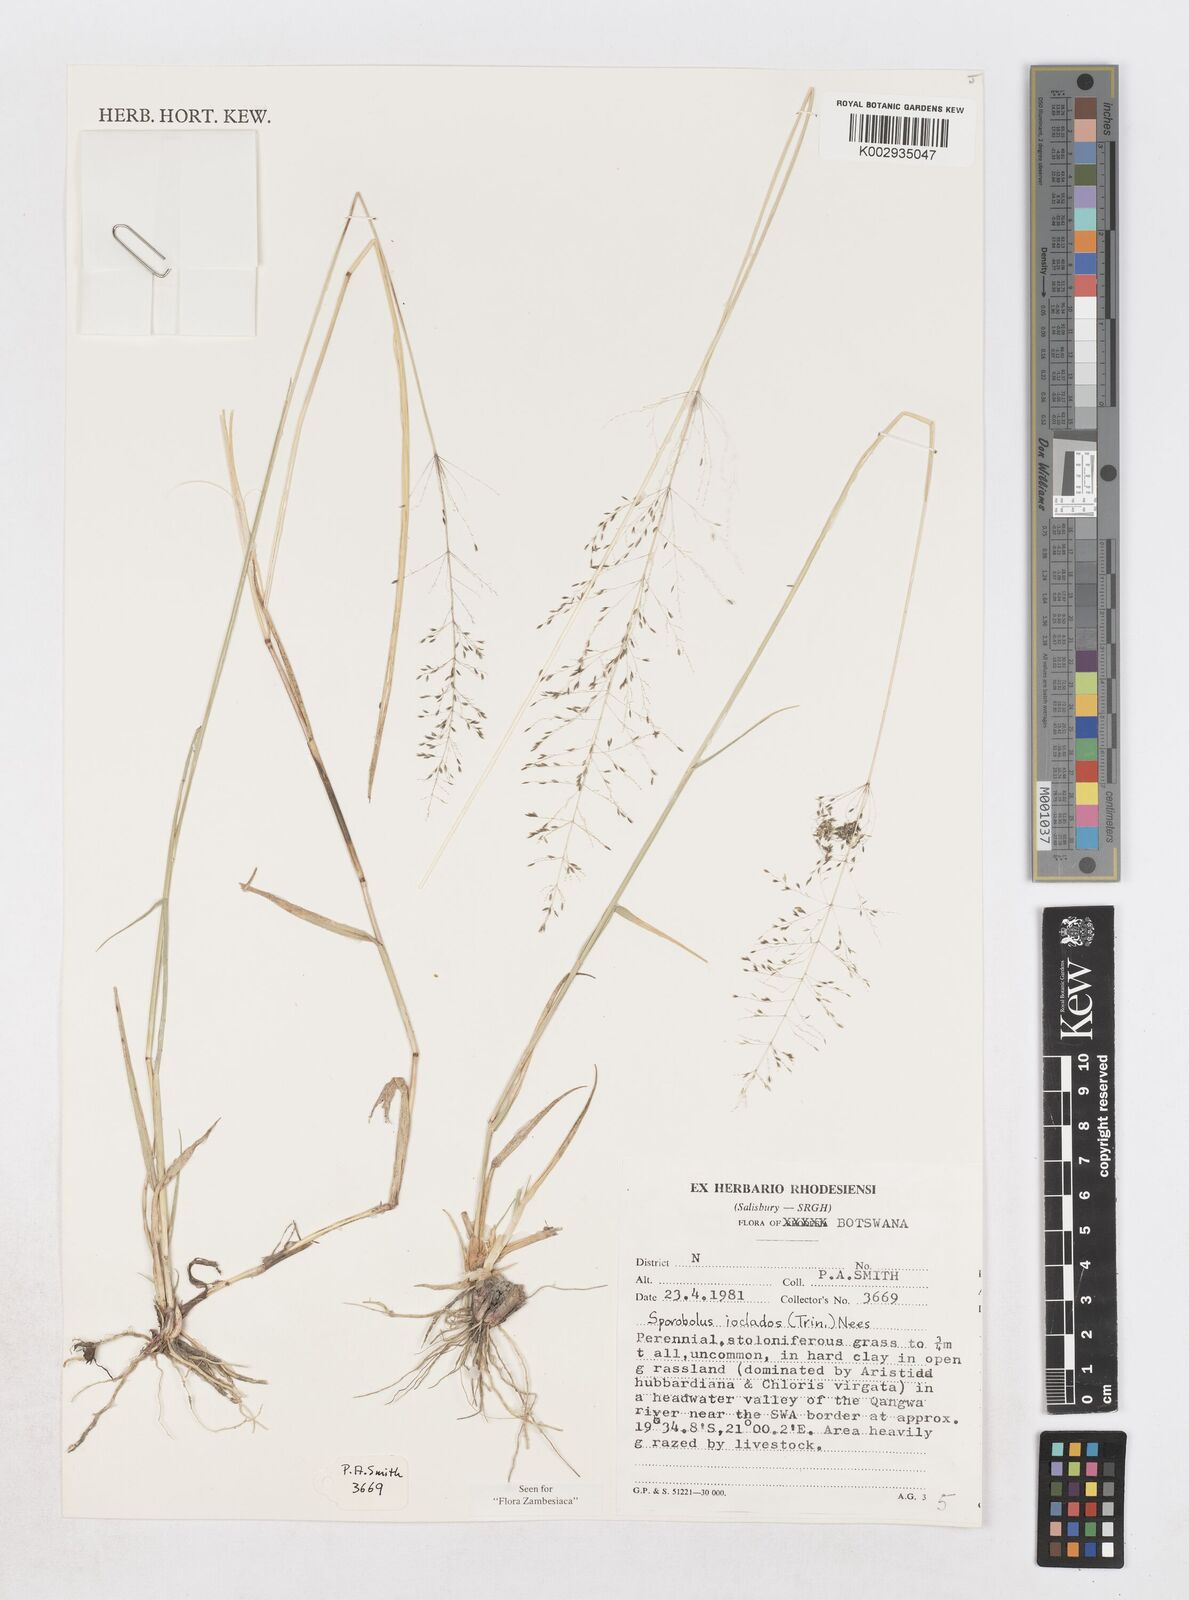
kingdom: Plantae
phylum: Tracheophyta
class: Liliopsida
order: Poales
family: Poaceae
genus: Sporobolus
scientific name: Sporobolus ioclados
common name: Pan dropseed
